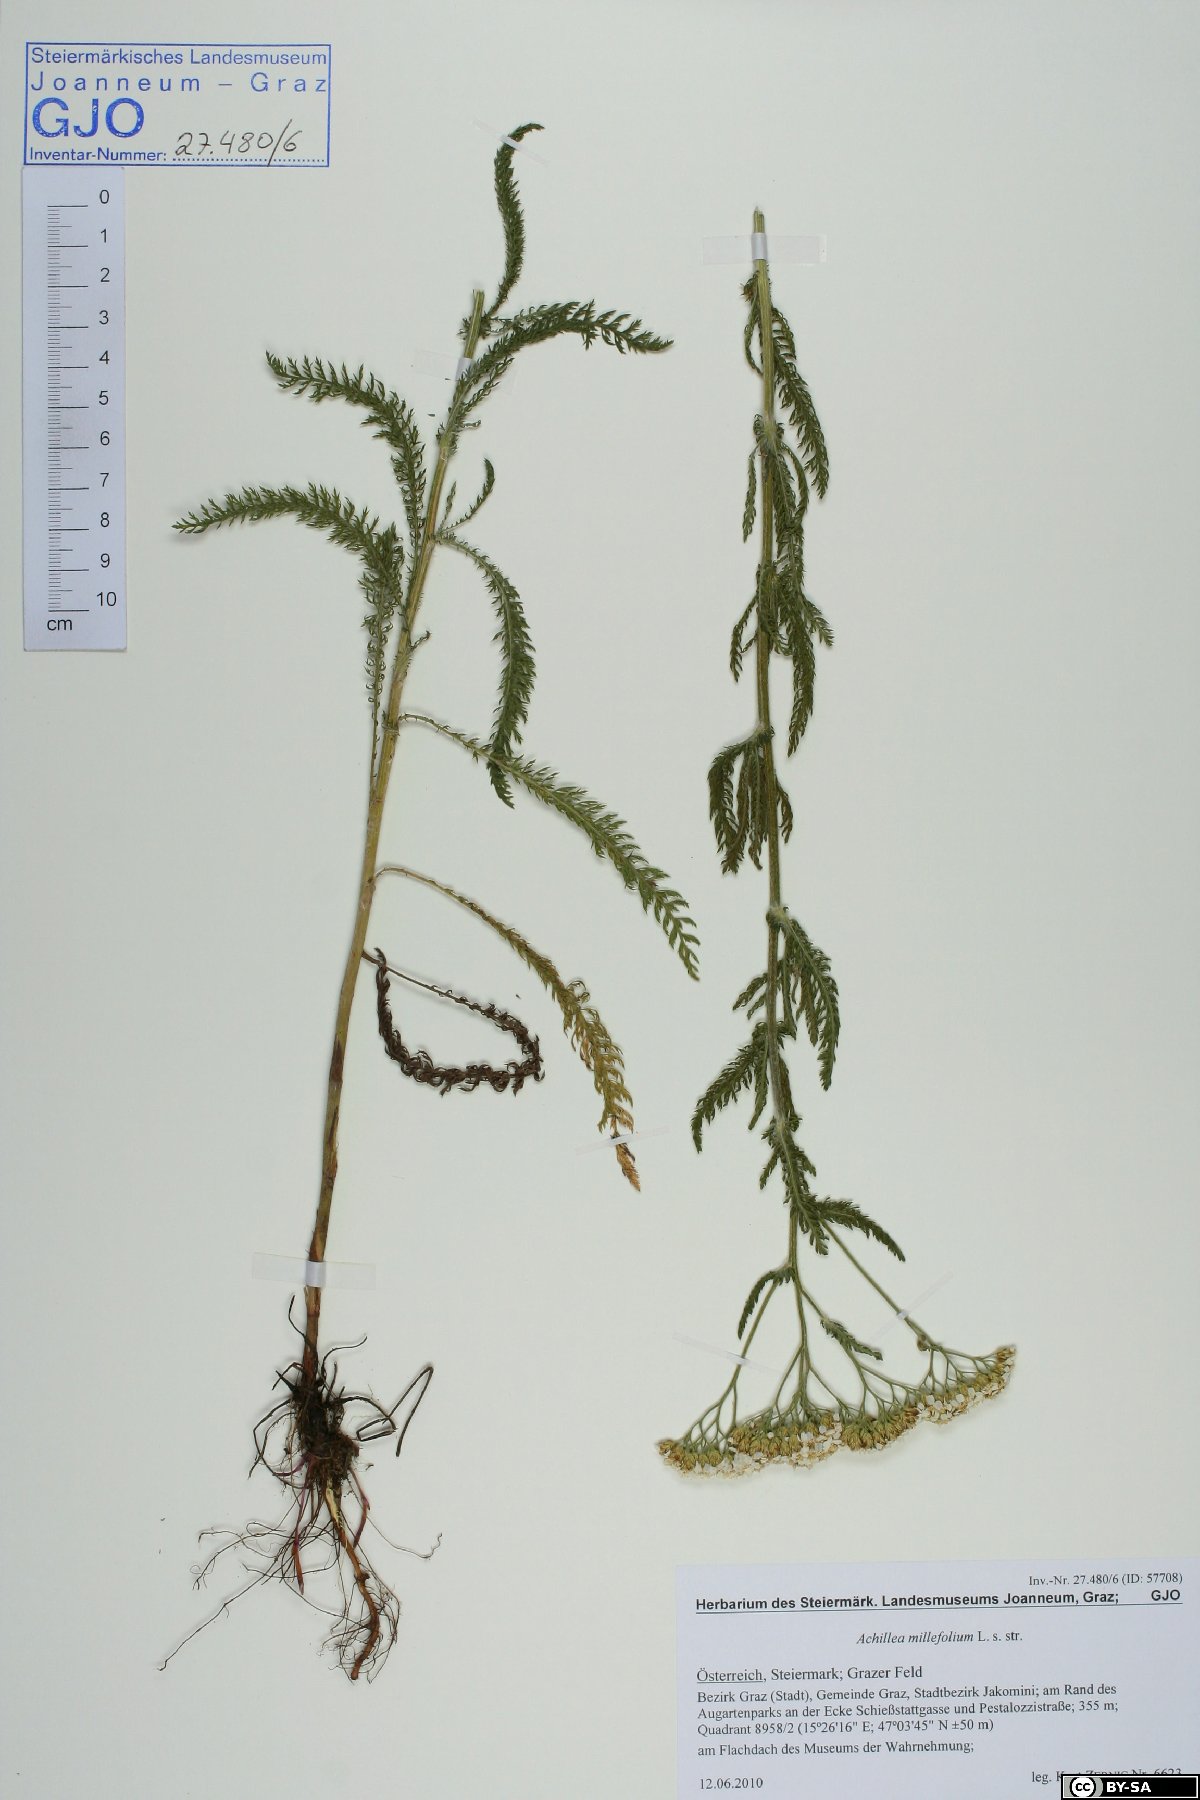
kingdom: Plantae
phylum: Tracheophyta
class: Magnoliopsida
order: Asterales
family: Asteraceae
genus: Achillea
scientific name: Achillea millefolium
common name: Yarrow
